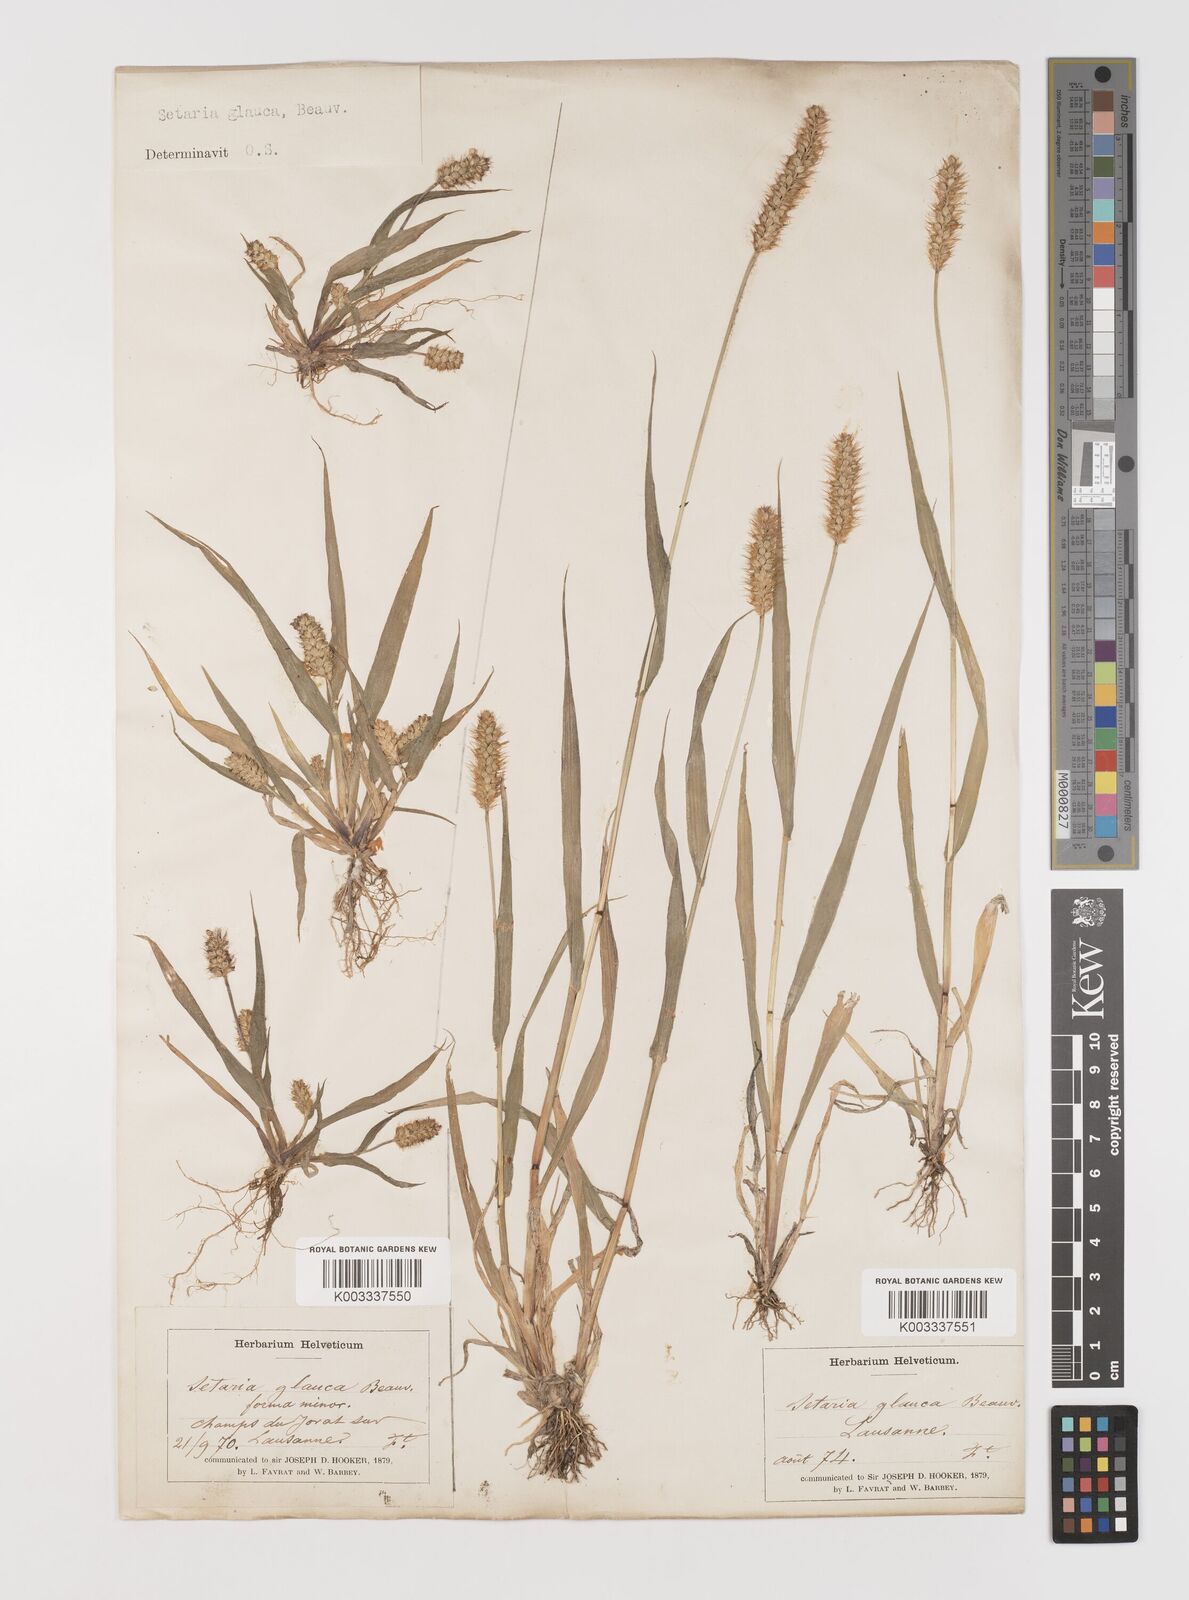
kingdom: Plantae
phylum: Tracheophyta
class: Liliopsida
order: Poales
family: Poaceae
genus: Setaria
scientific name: Setaria pumila
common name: Yellow bristle-grass
